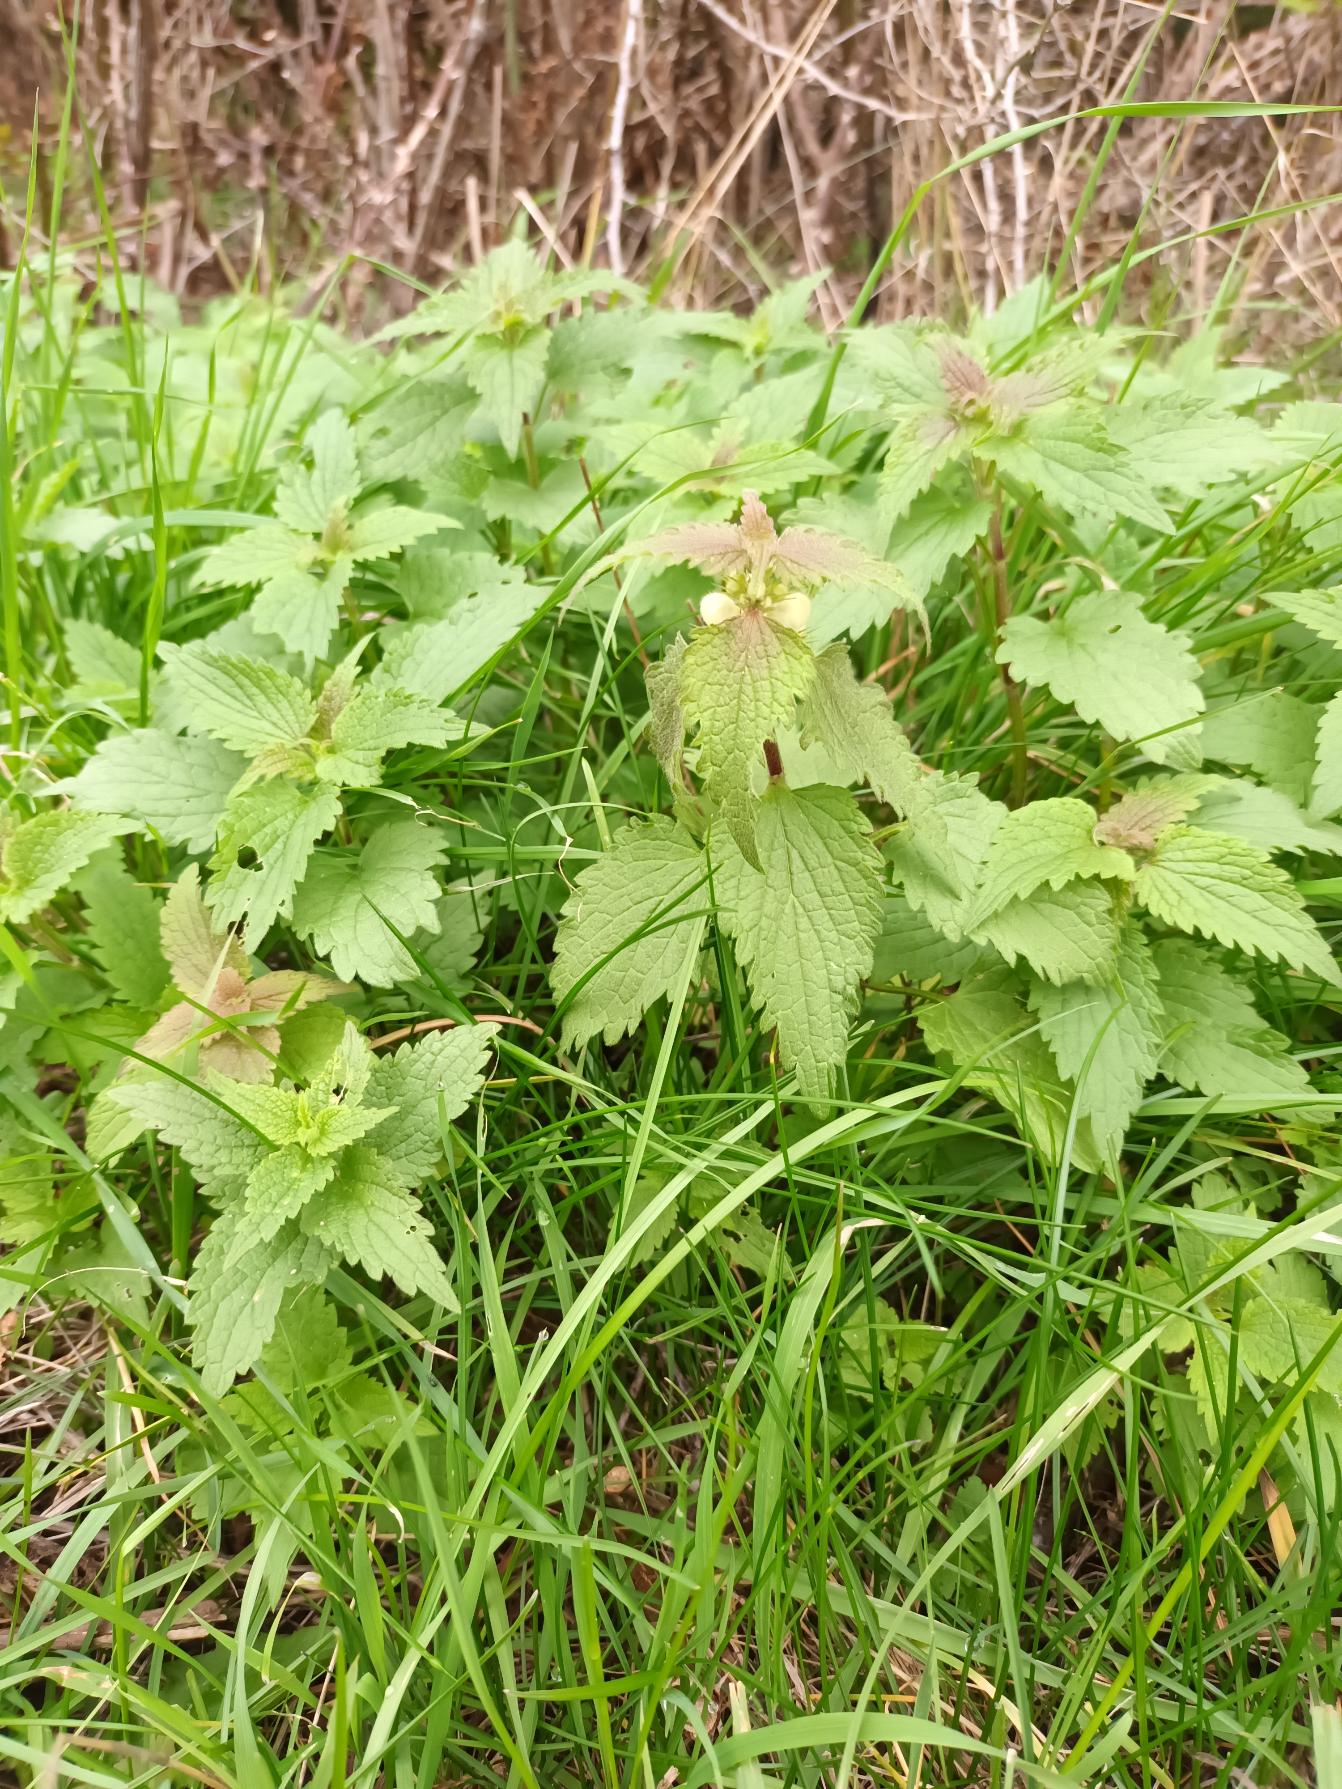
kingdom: Plantae
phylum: Tracheophyta
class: Magnoliopsida
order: Lamiales
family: Lamiaceae
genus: Lamium
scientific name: Lamium album
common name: Døvnælde
